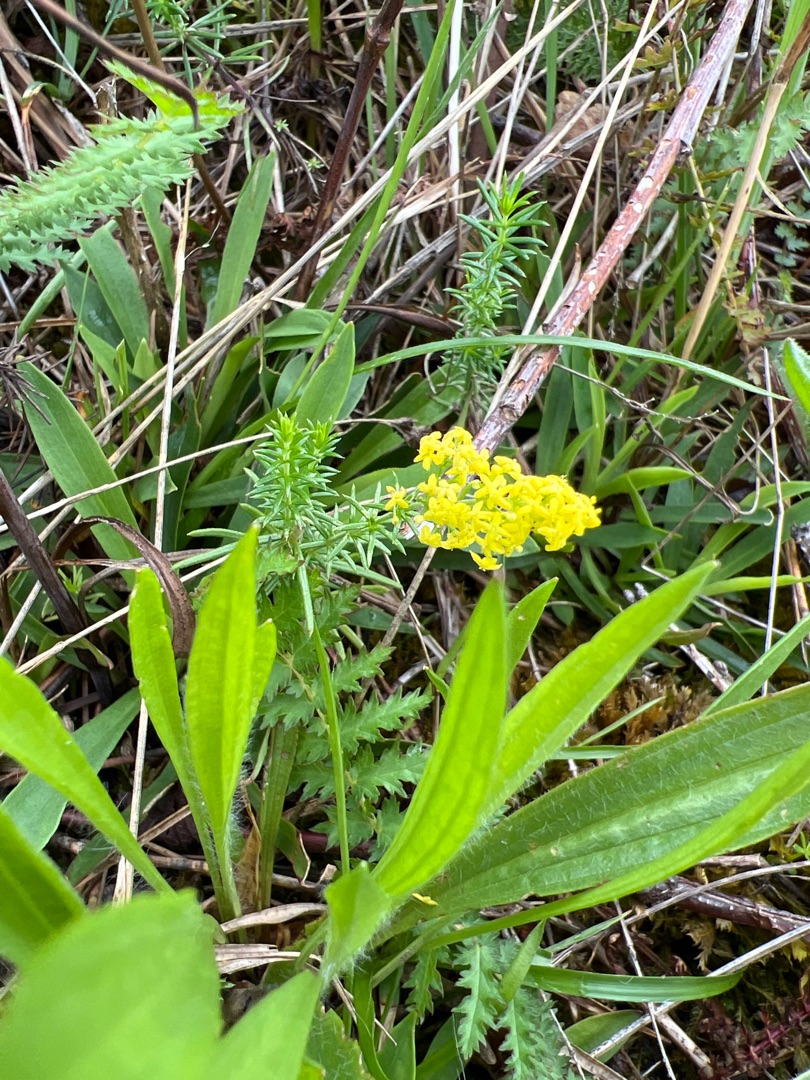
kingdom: Plantae
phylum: Tracheophyta
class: Magnoliopsida
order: Gentianales
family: Rubiaceae
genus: Galium
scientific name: Galium verum
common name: Gul snerre
